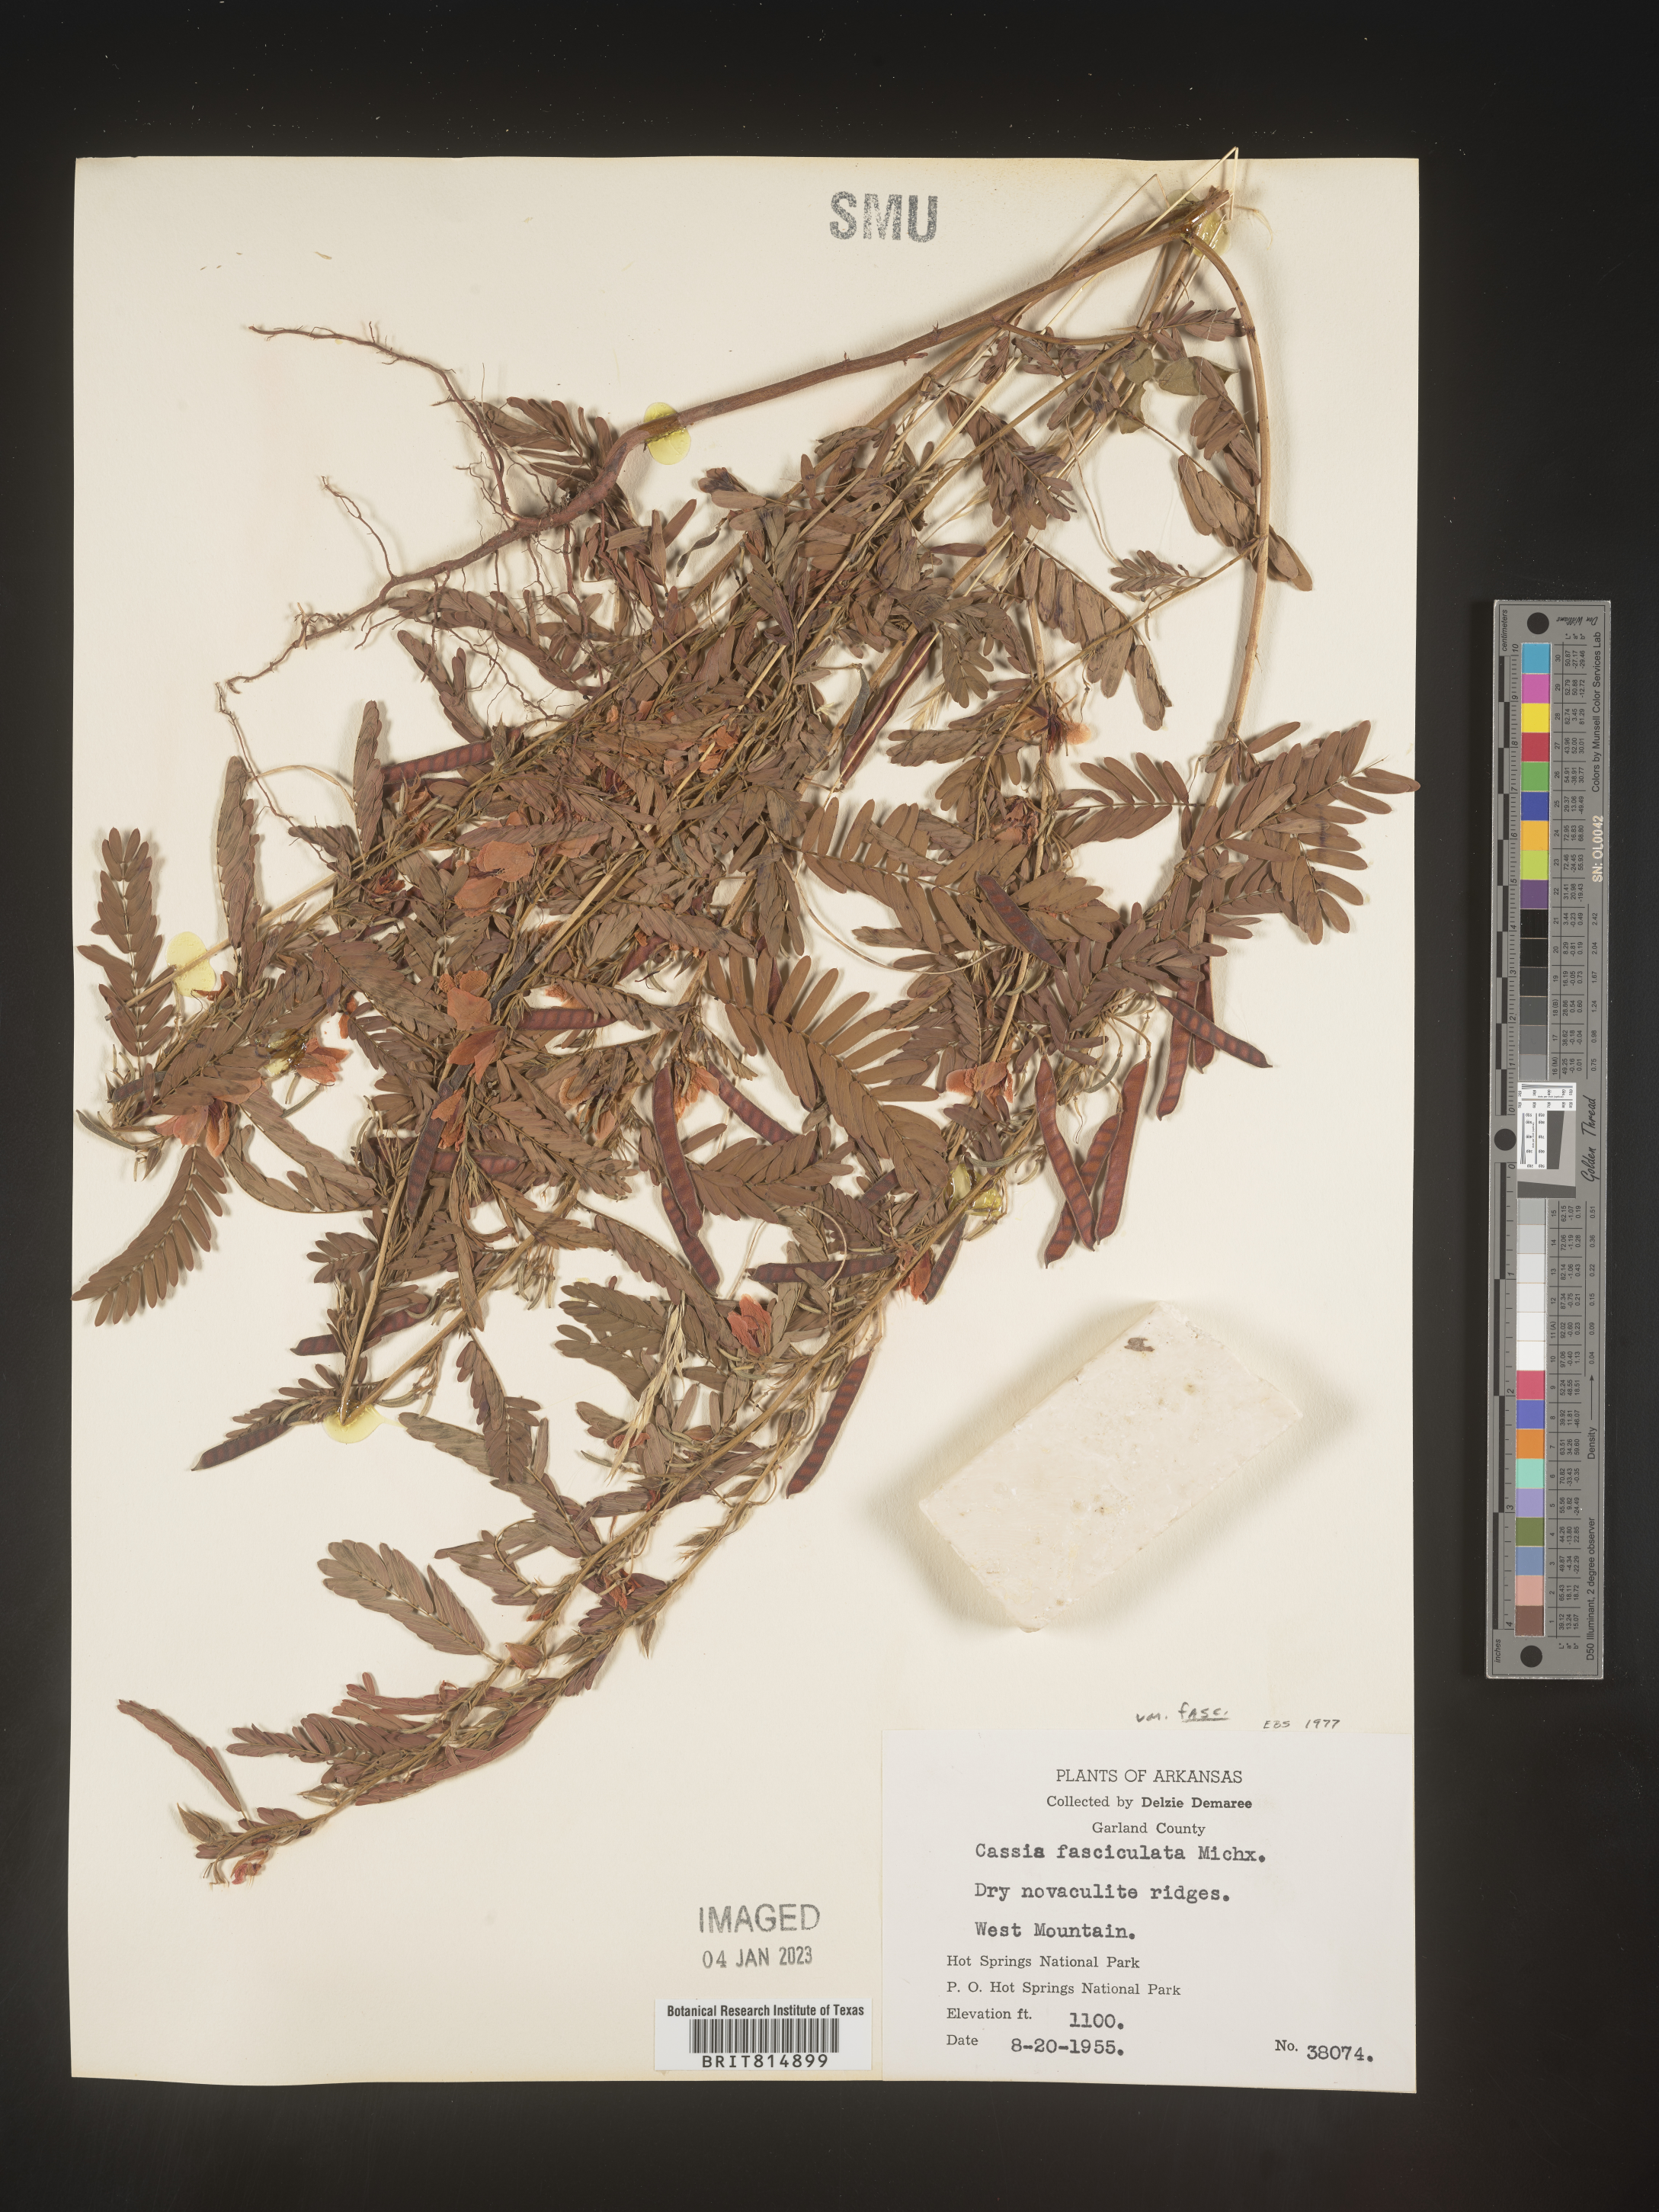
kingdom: Plantae
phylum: Tracheophyta
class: Magnoliopsida
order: Fabales
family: Fabaceae
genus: Chamaecrista
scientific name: Chamaecrista fasciculata
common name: Golden cassia
